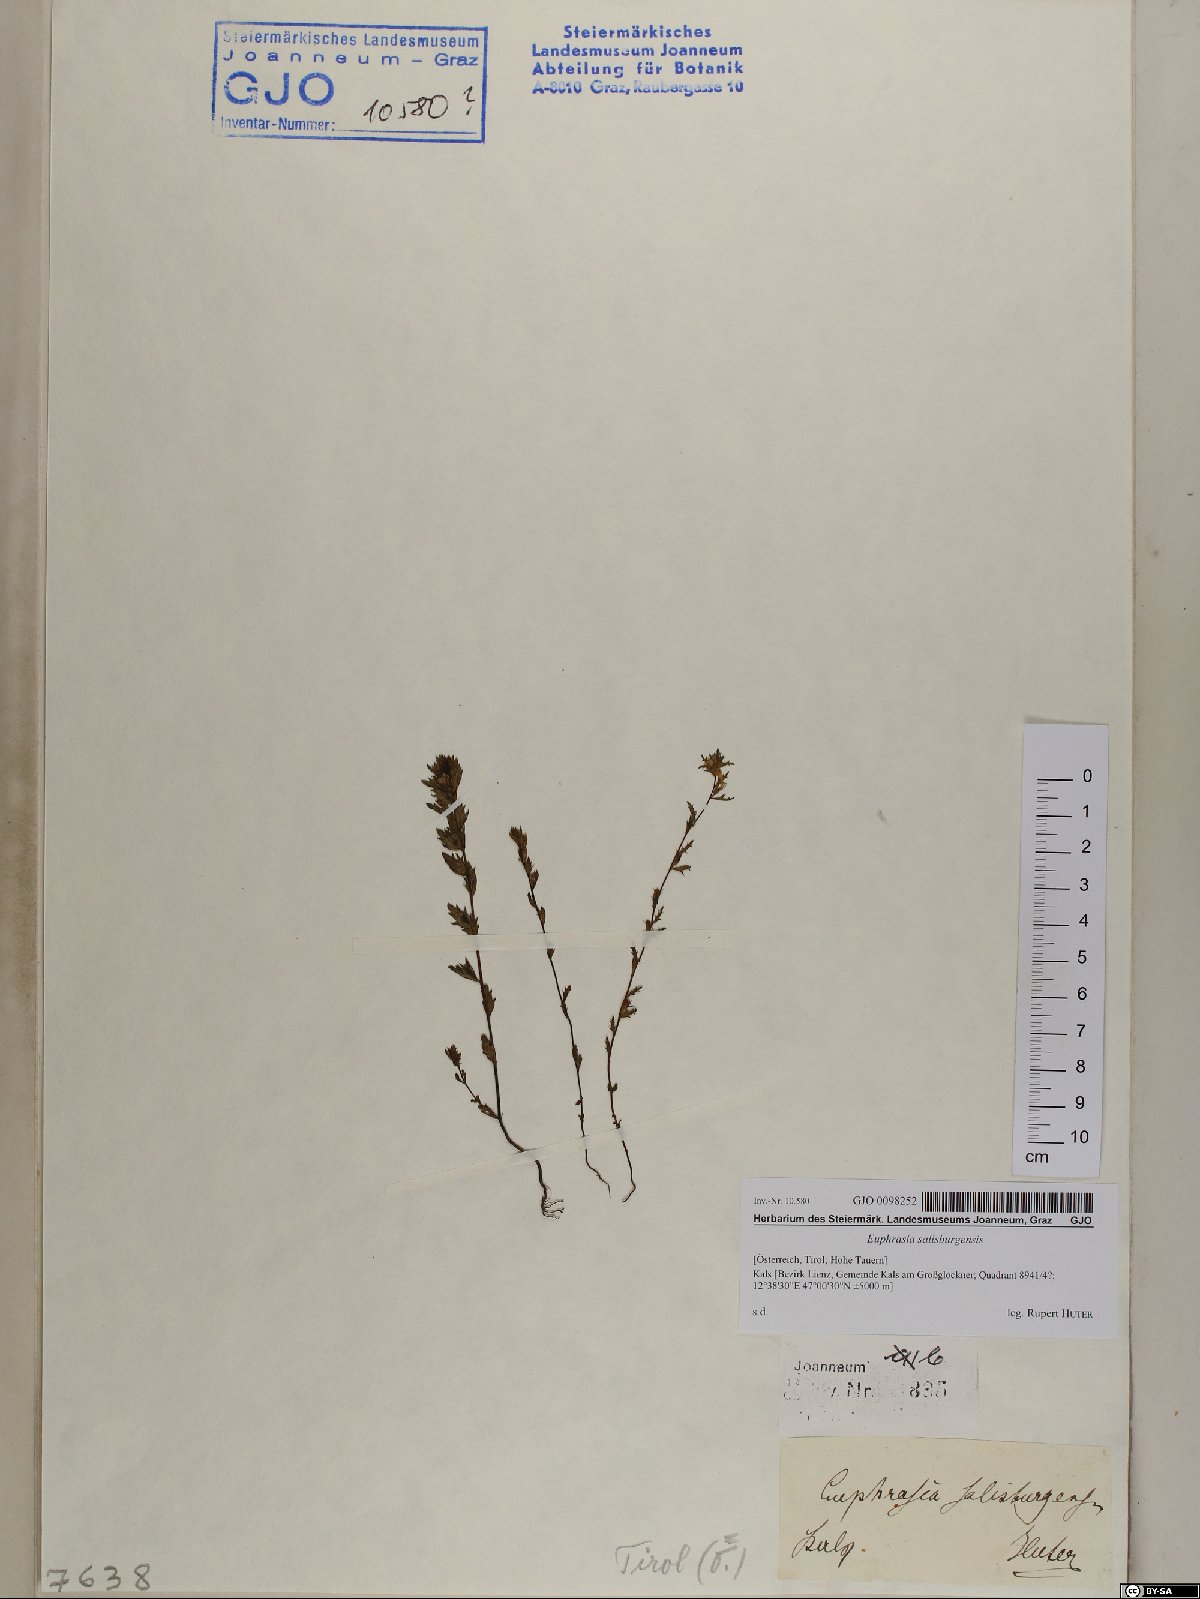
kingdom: Plantae
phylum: Tracheophyta
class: Magnoliopsida
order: Lamiales
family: Orobanchaceae
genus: Euphrasia
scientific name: Euphrasia salisburgensis
